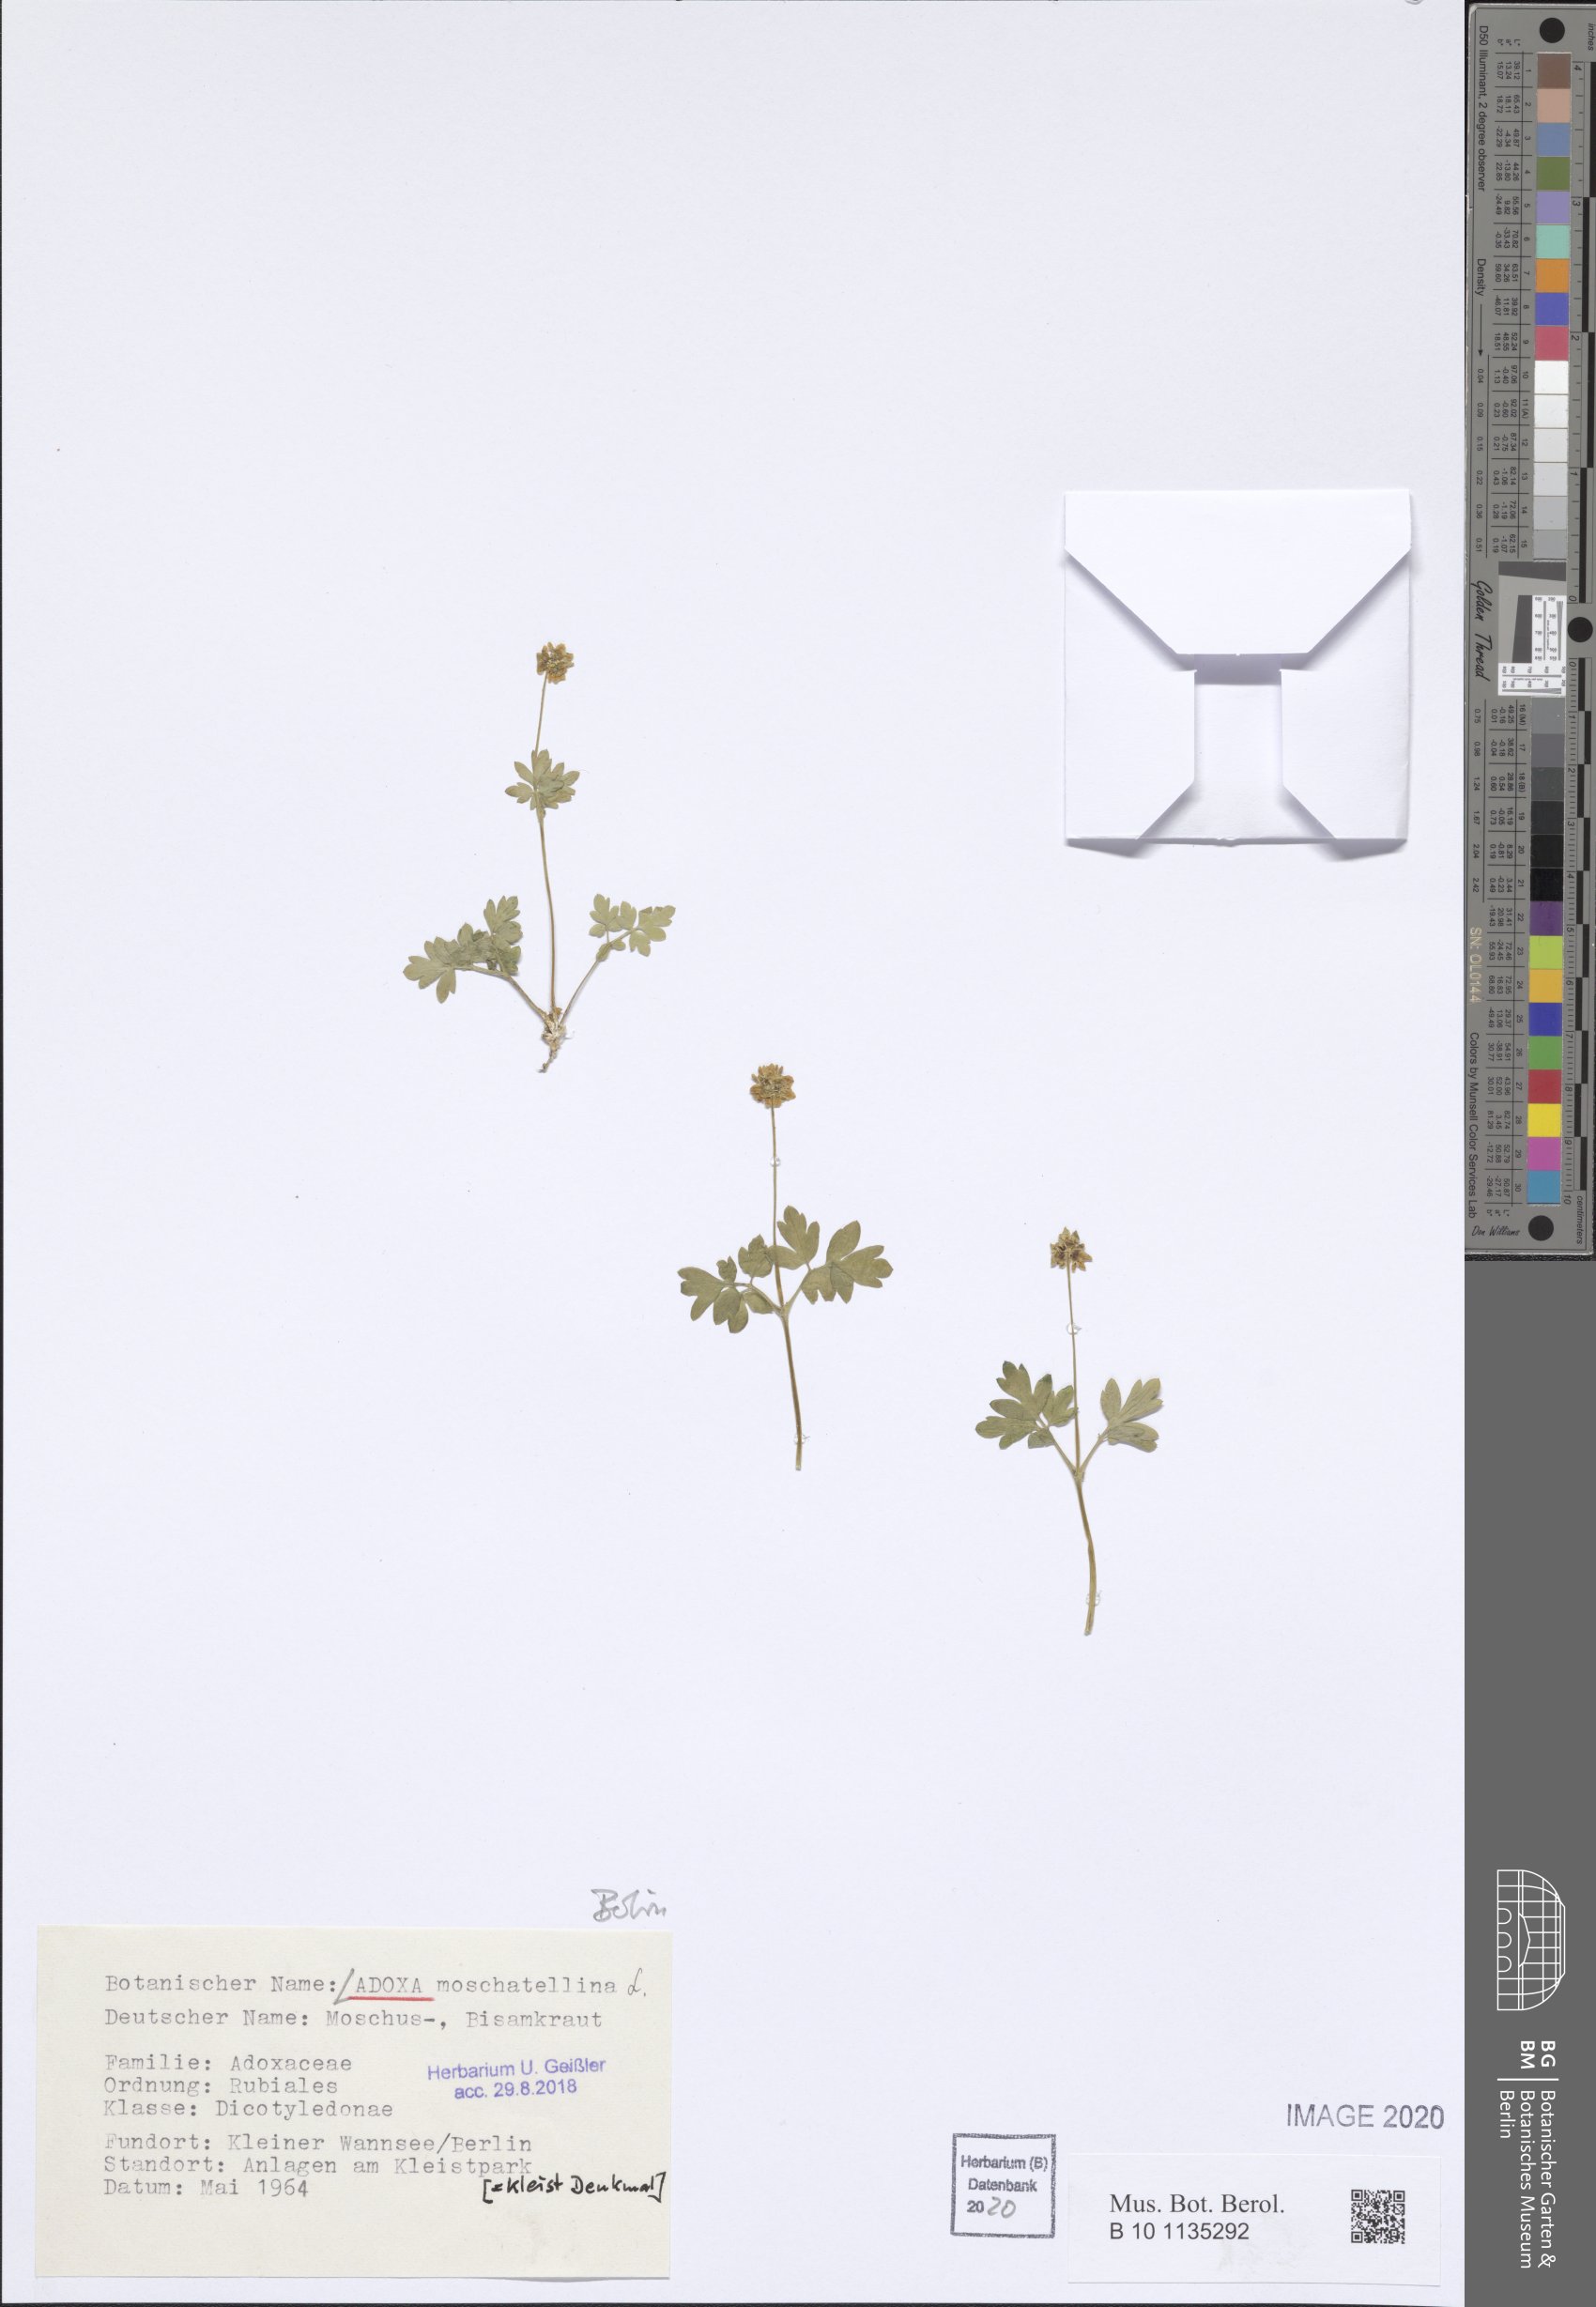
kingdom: Plantae
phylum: Tracheophyta
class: Magnoliopsida
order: Dipsacales
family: Viburnaceae
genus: Adoxa
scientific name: Adoxa moschatellina
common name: Moschatel
